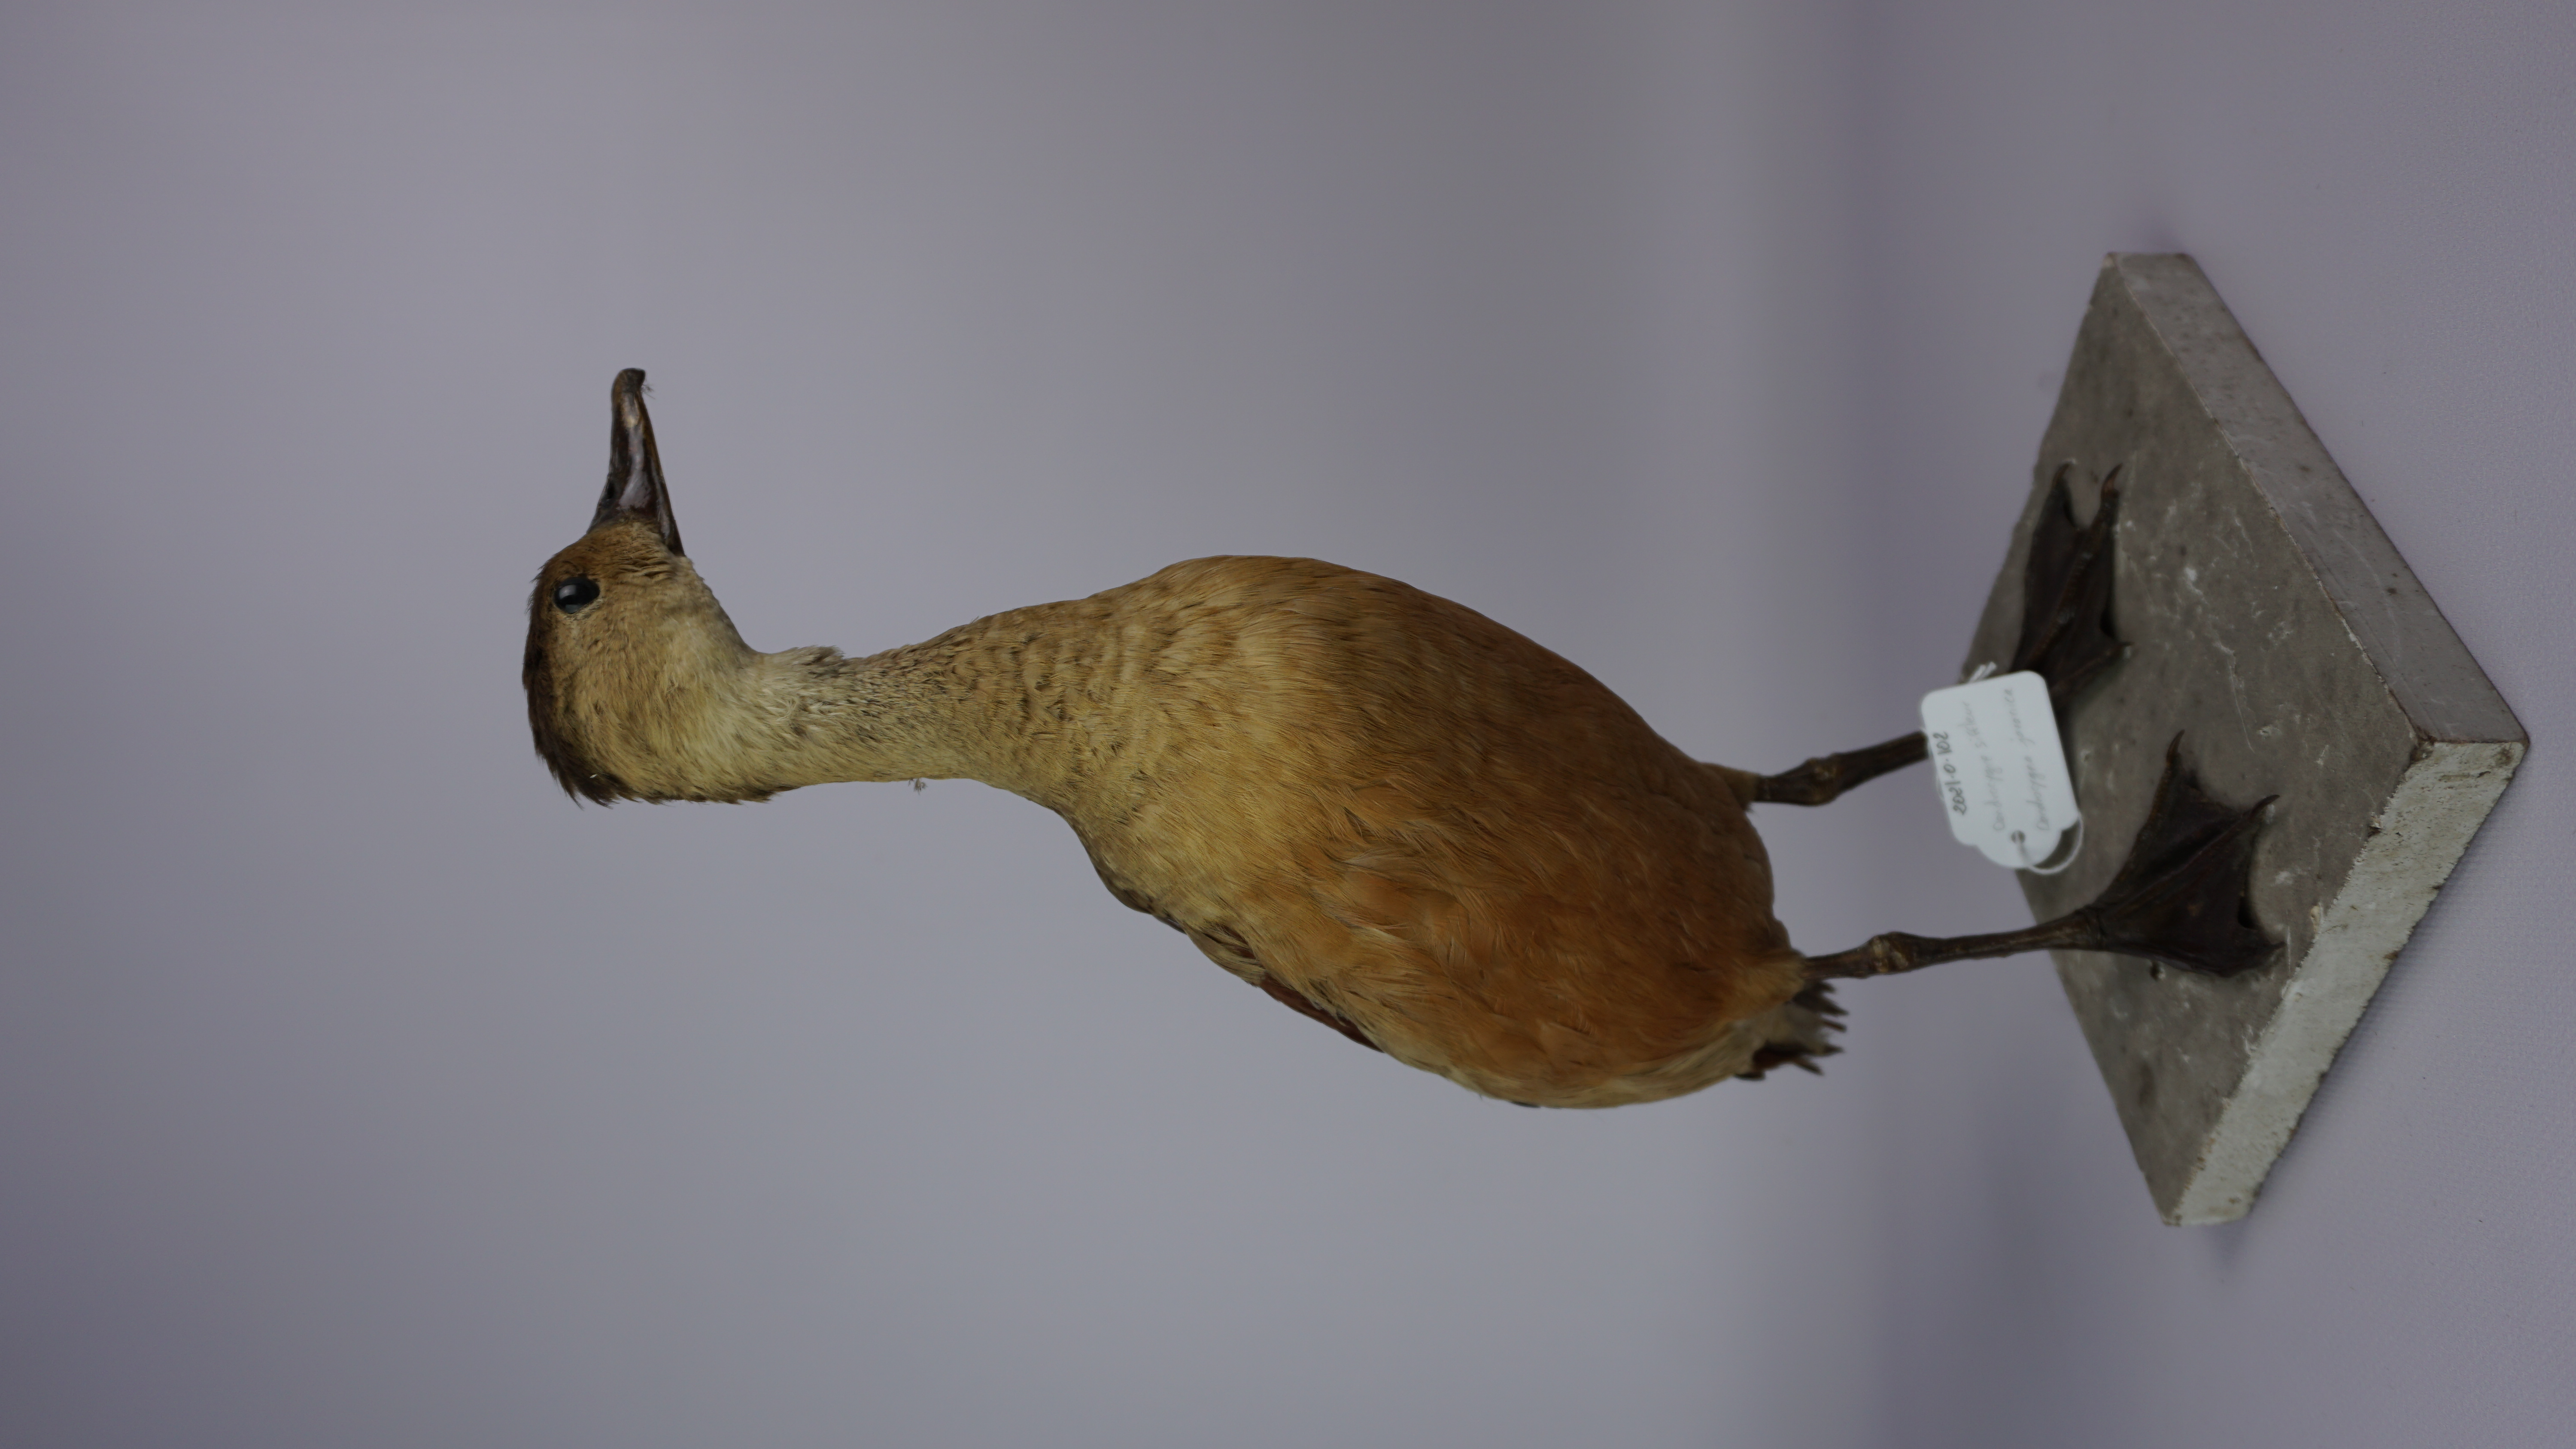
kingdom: Animalia
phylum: Chordata
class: Aves
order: Anseriformes
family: Anatidae
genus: Dendrocygna
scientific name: Dendrocygna javanica
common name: Lesser whistling-duck
